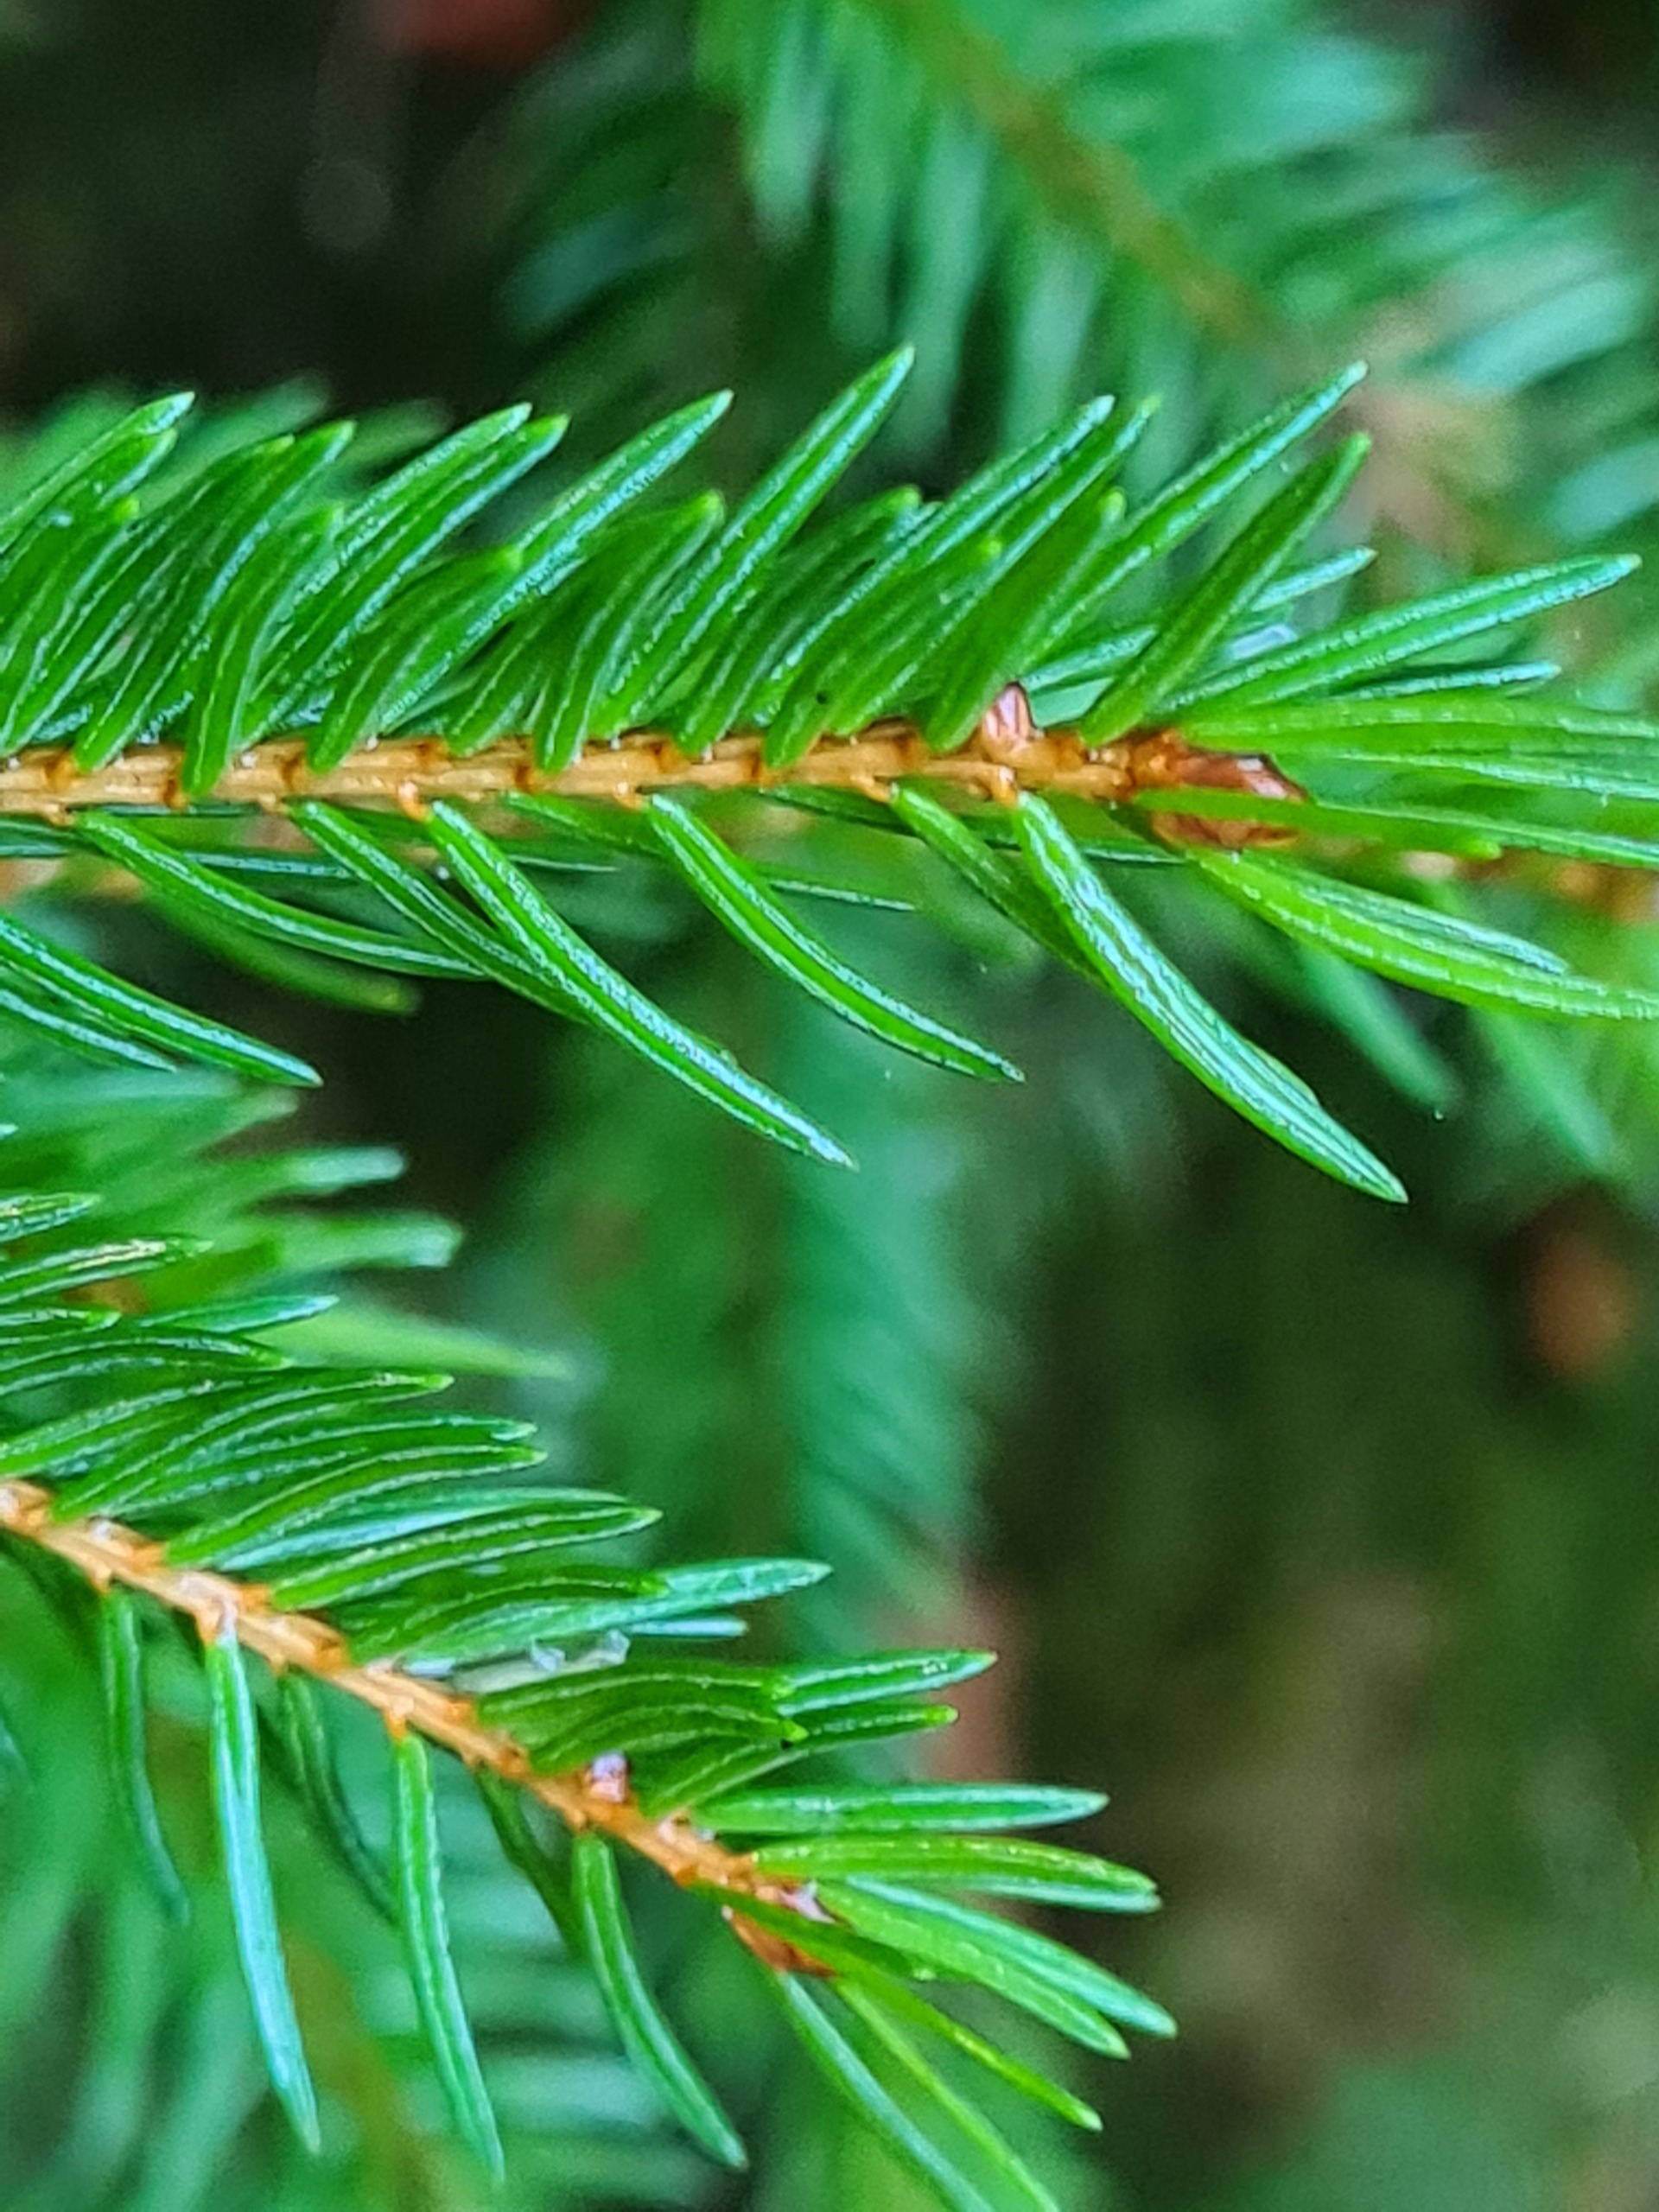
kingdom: Plantae
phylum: Tracheophyta
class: Pinopsida
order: Pinales
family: Pinaceae
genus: Picea
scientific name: Picea abies
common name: Rød-gran
